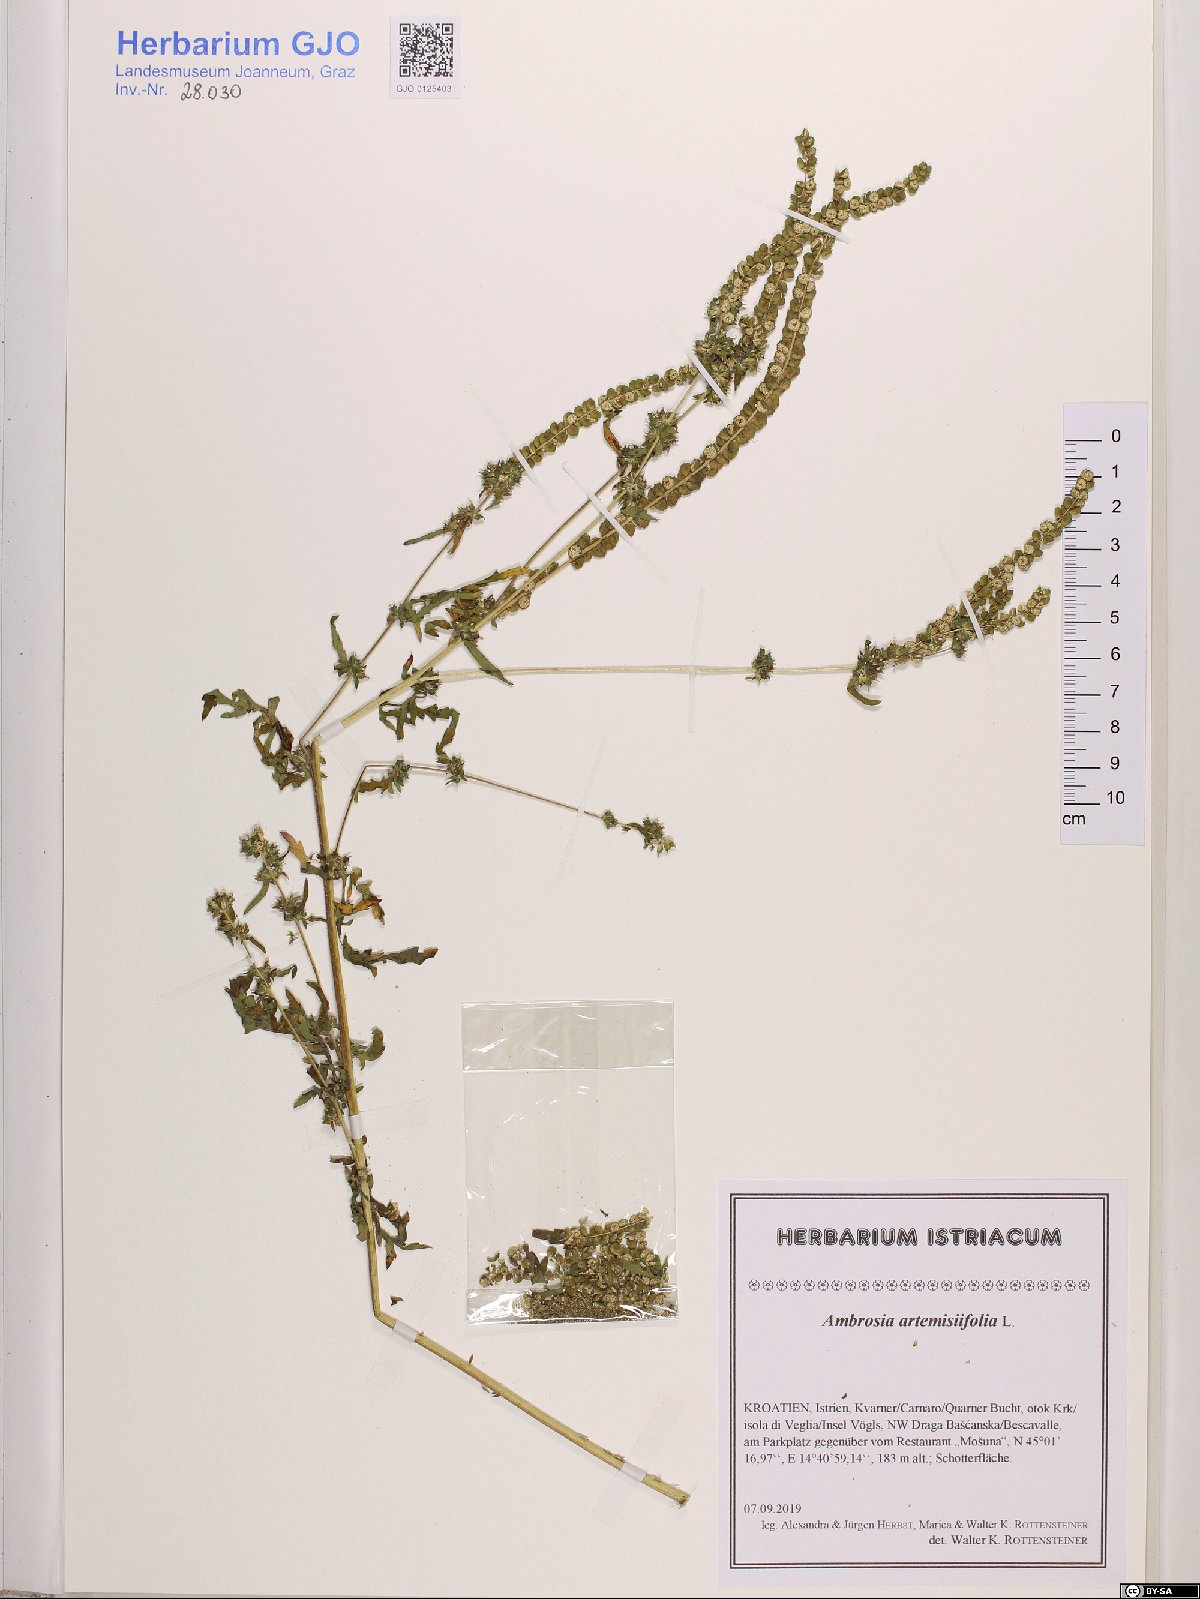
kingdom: Plantae
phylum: Tracheophyta
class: Magnoliopsida
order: Asterales
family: Asteraceae
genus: Ambrosia
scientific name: Ambrosia artemisiifolia
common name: Annual ragweed
